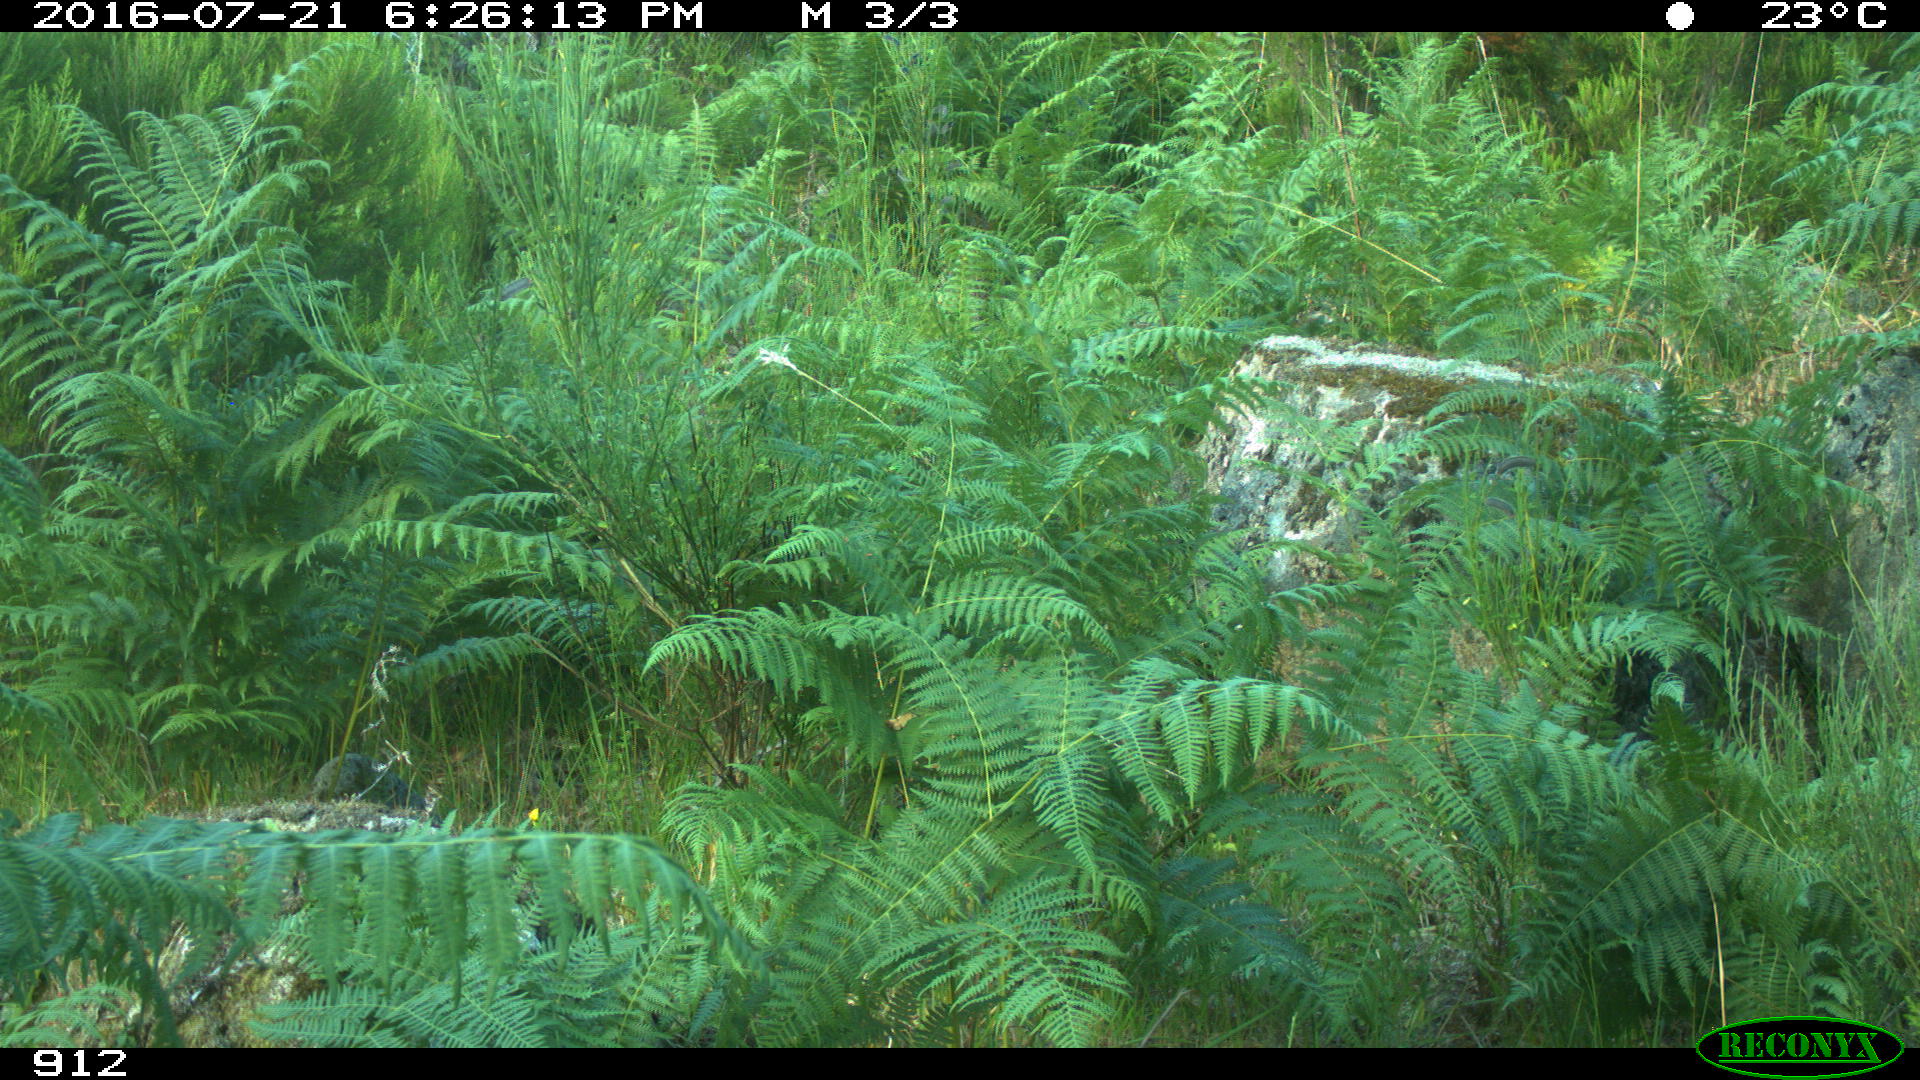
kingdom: Animalia
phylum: Chordata
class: Mammalia
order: Artiodactyla
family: Bovidae
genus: Bos
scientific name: Bos taurus
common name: Domesticated cattle
